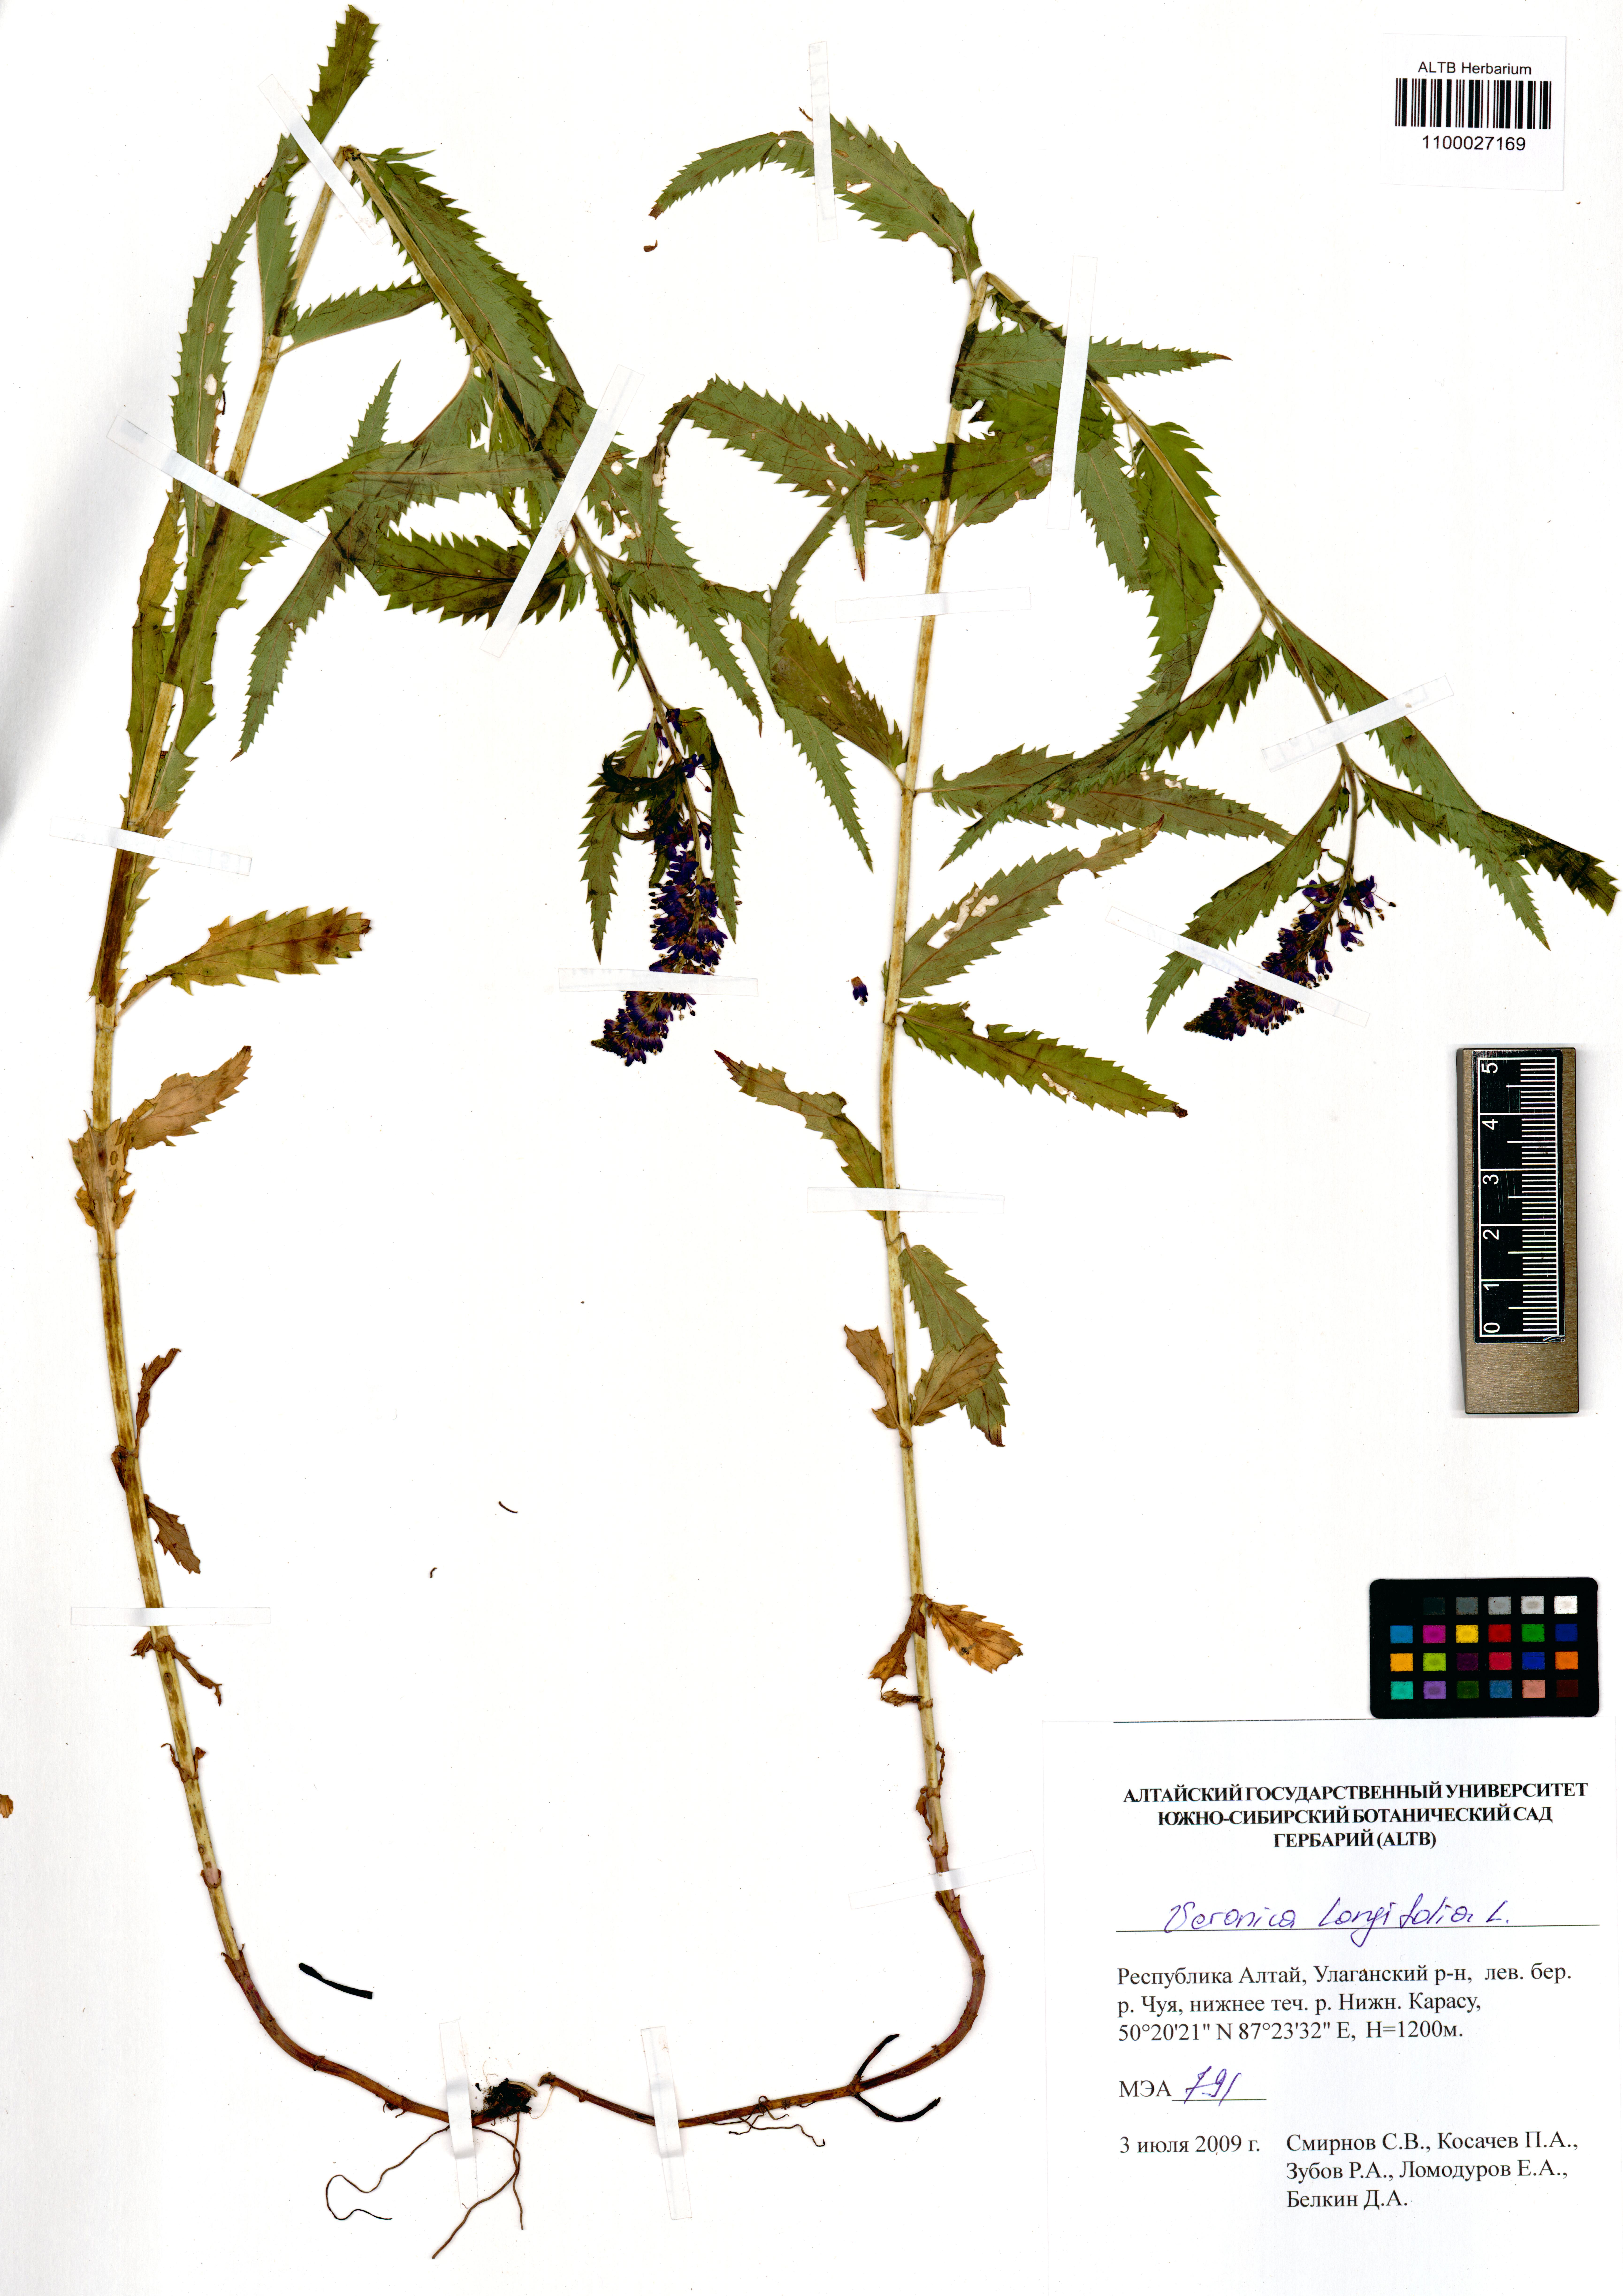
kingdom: Plantae
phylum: Tracheophyta
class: Magnoliopsida
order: Lamiales
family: Plantaginaceae
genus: Veronica
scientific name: Veronica longifolia
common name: Garden speedwell
